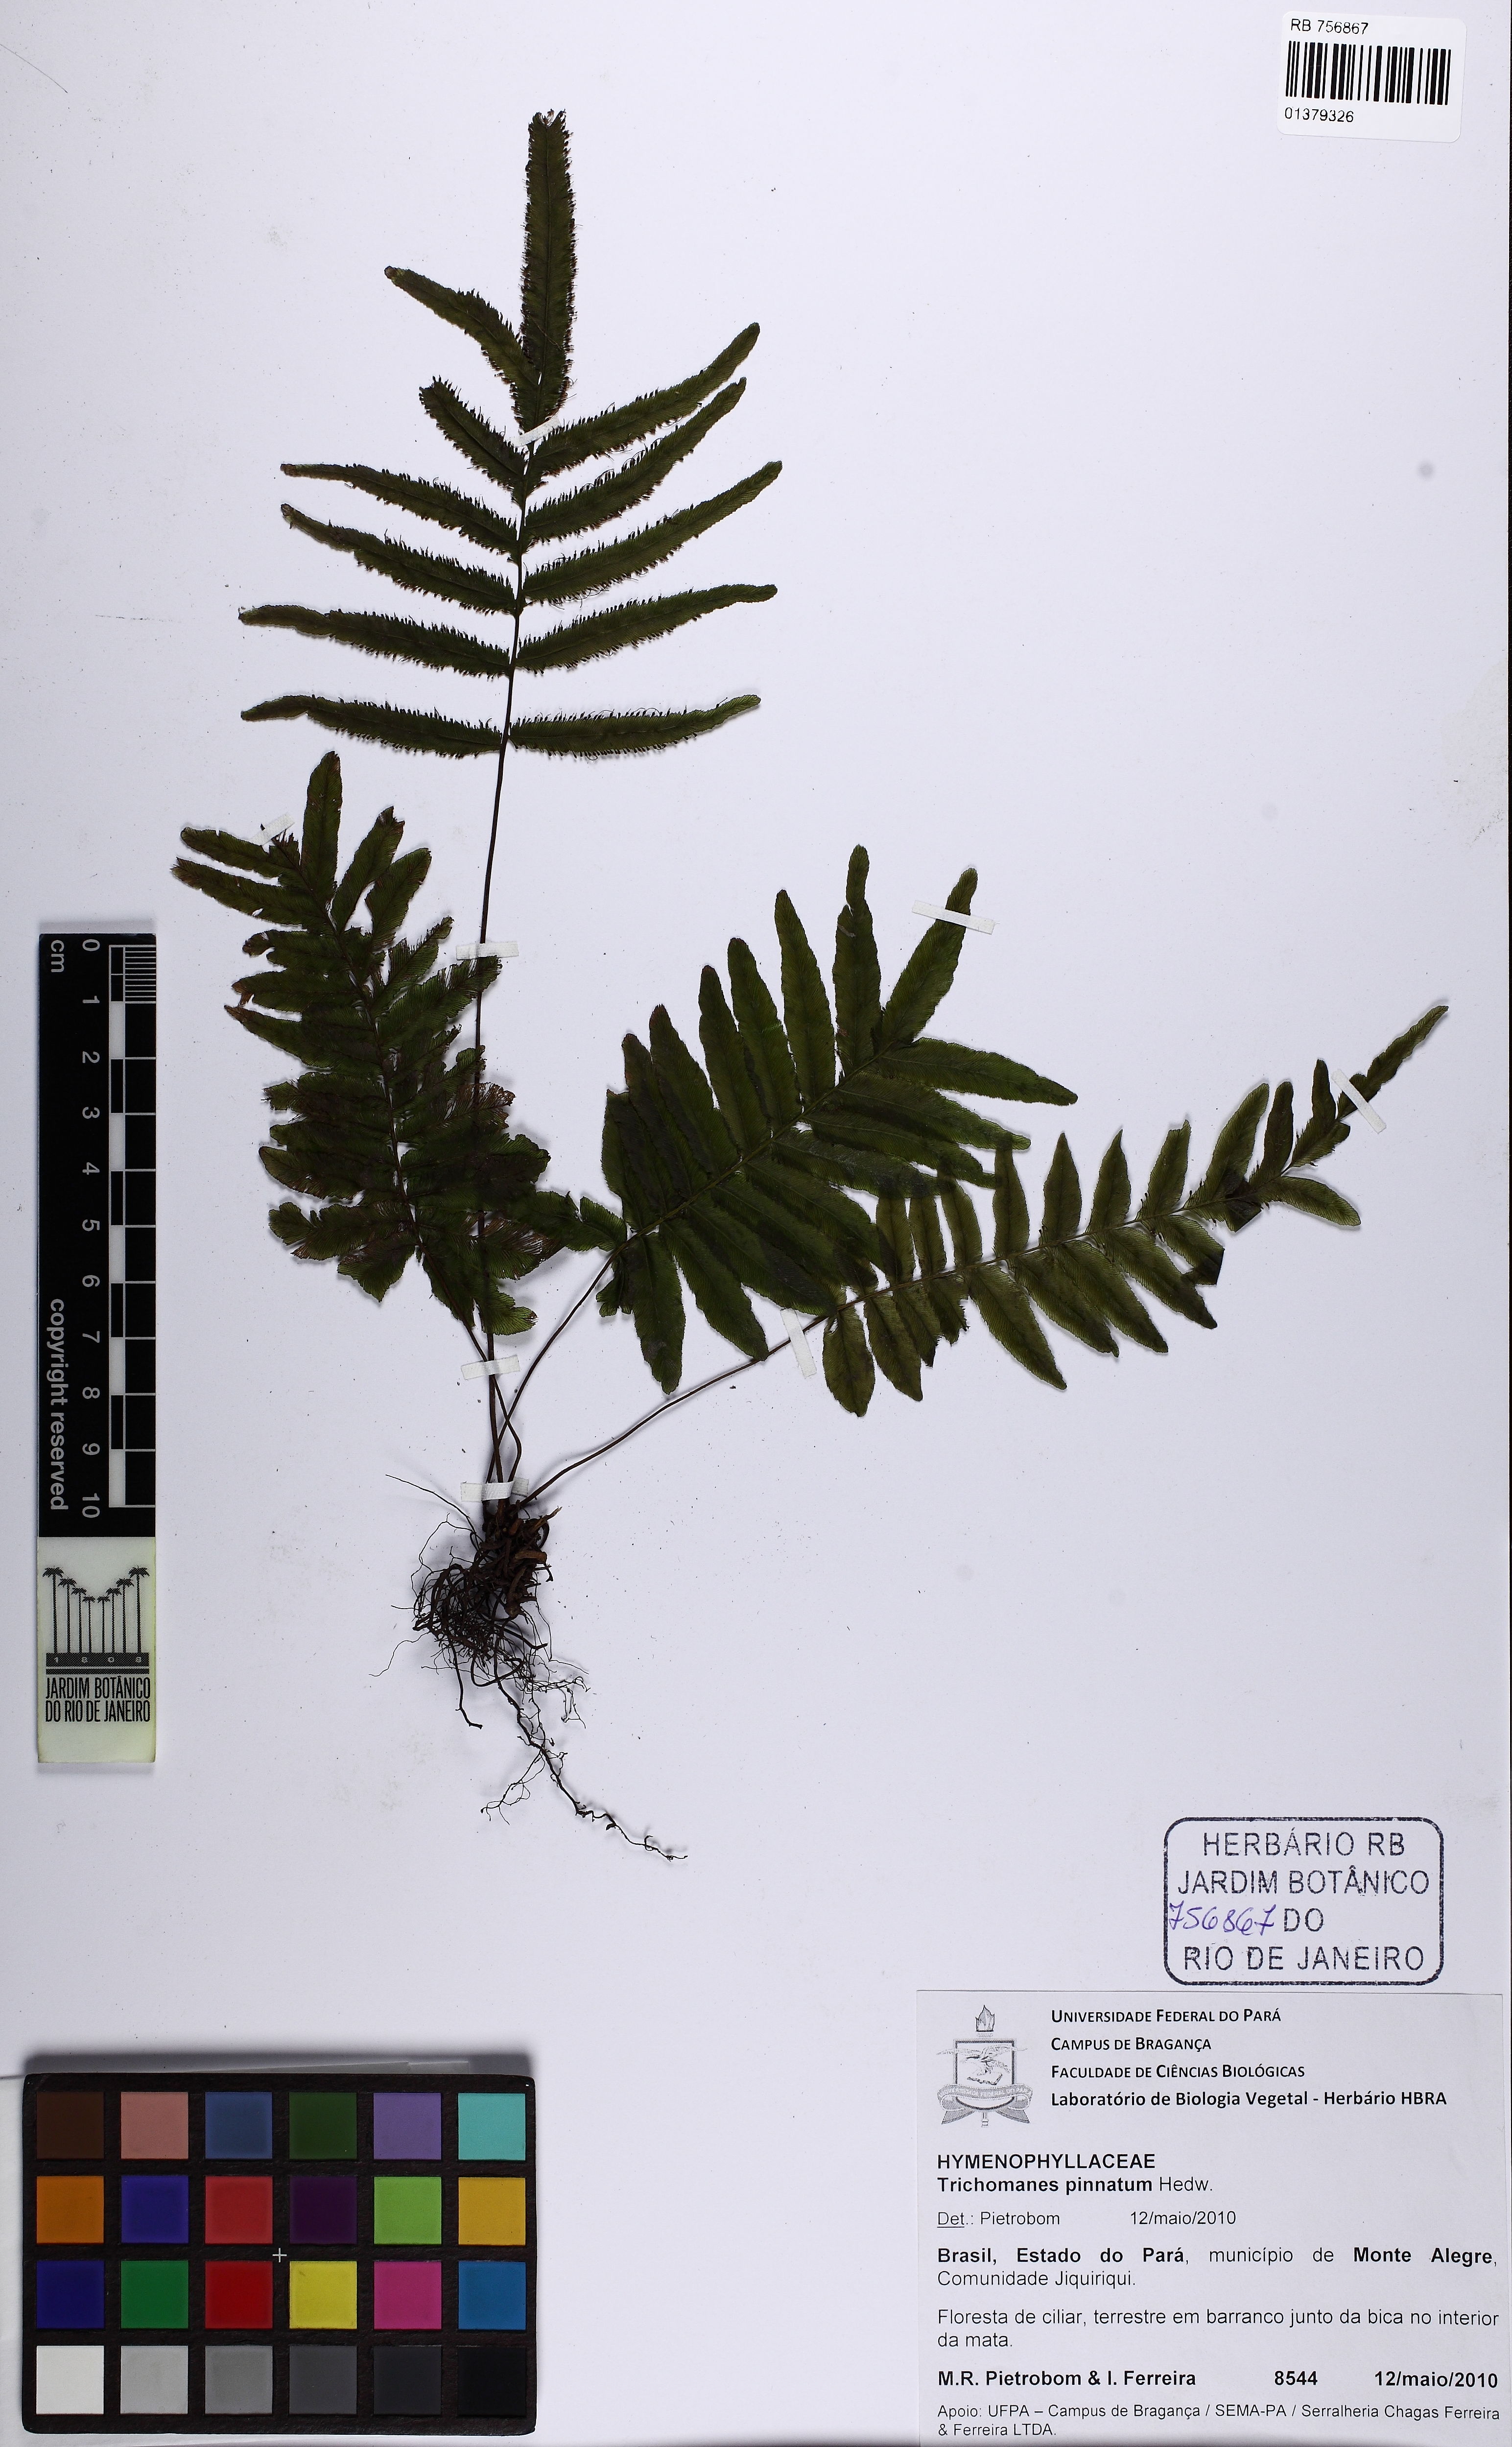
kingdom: Plantae
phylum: Tracheophyta
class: Polypodiopsida
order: Hymenophyllales
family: Hymenophyllaceae
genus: Trichomanes
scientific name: Trichomanes pinnatum
